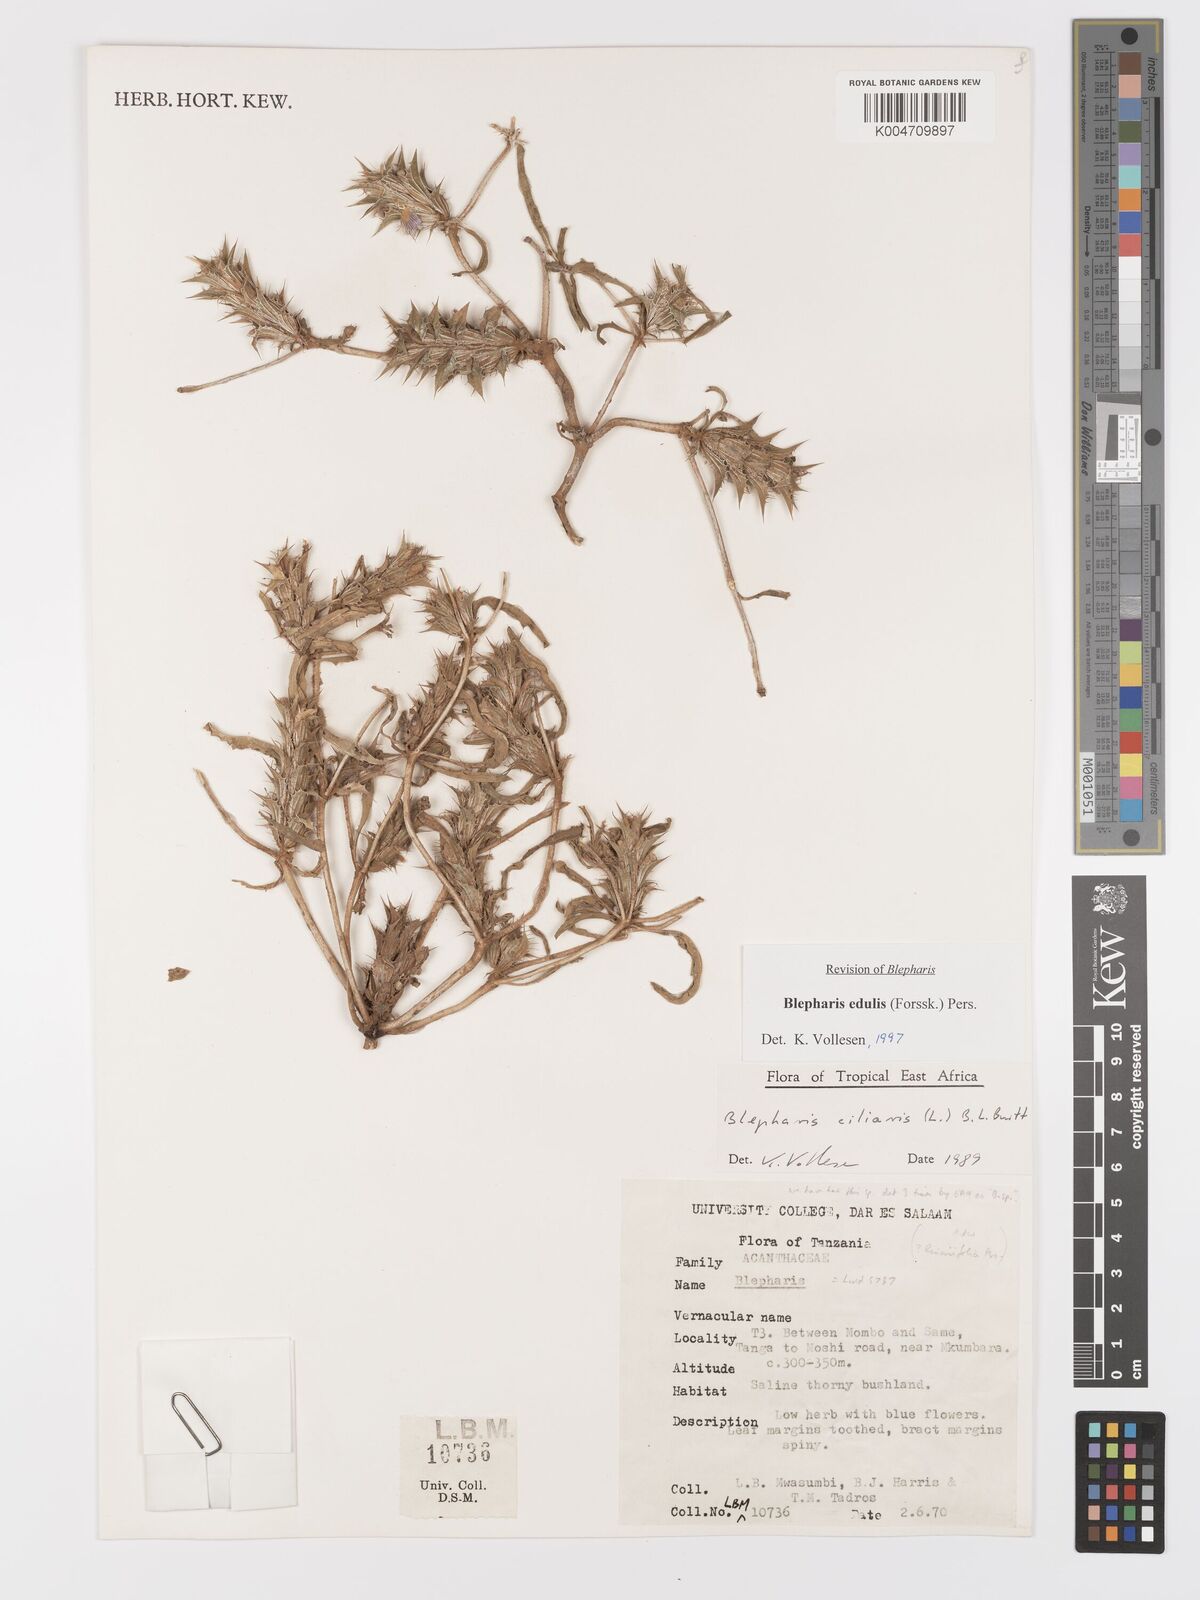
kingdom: Plantae
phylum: Tracheophyta
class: Magnoliopsida
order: Lamiales
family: Acanthaceae
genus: Blepharis
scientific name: Blepharis edulis
